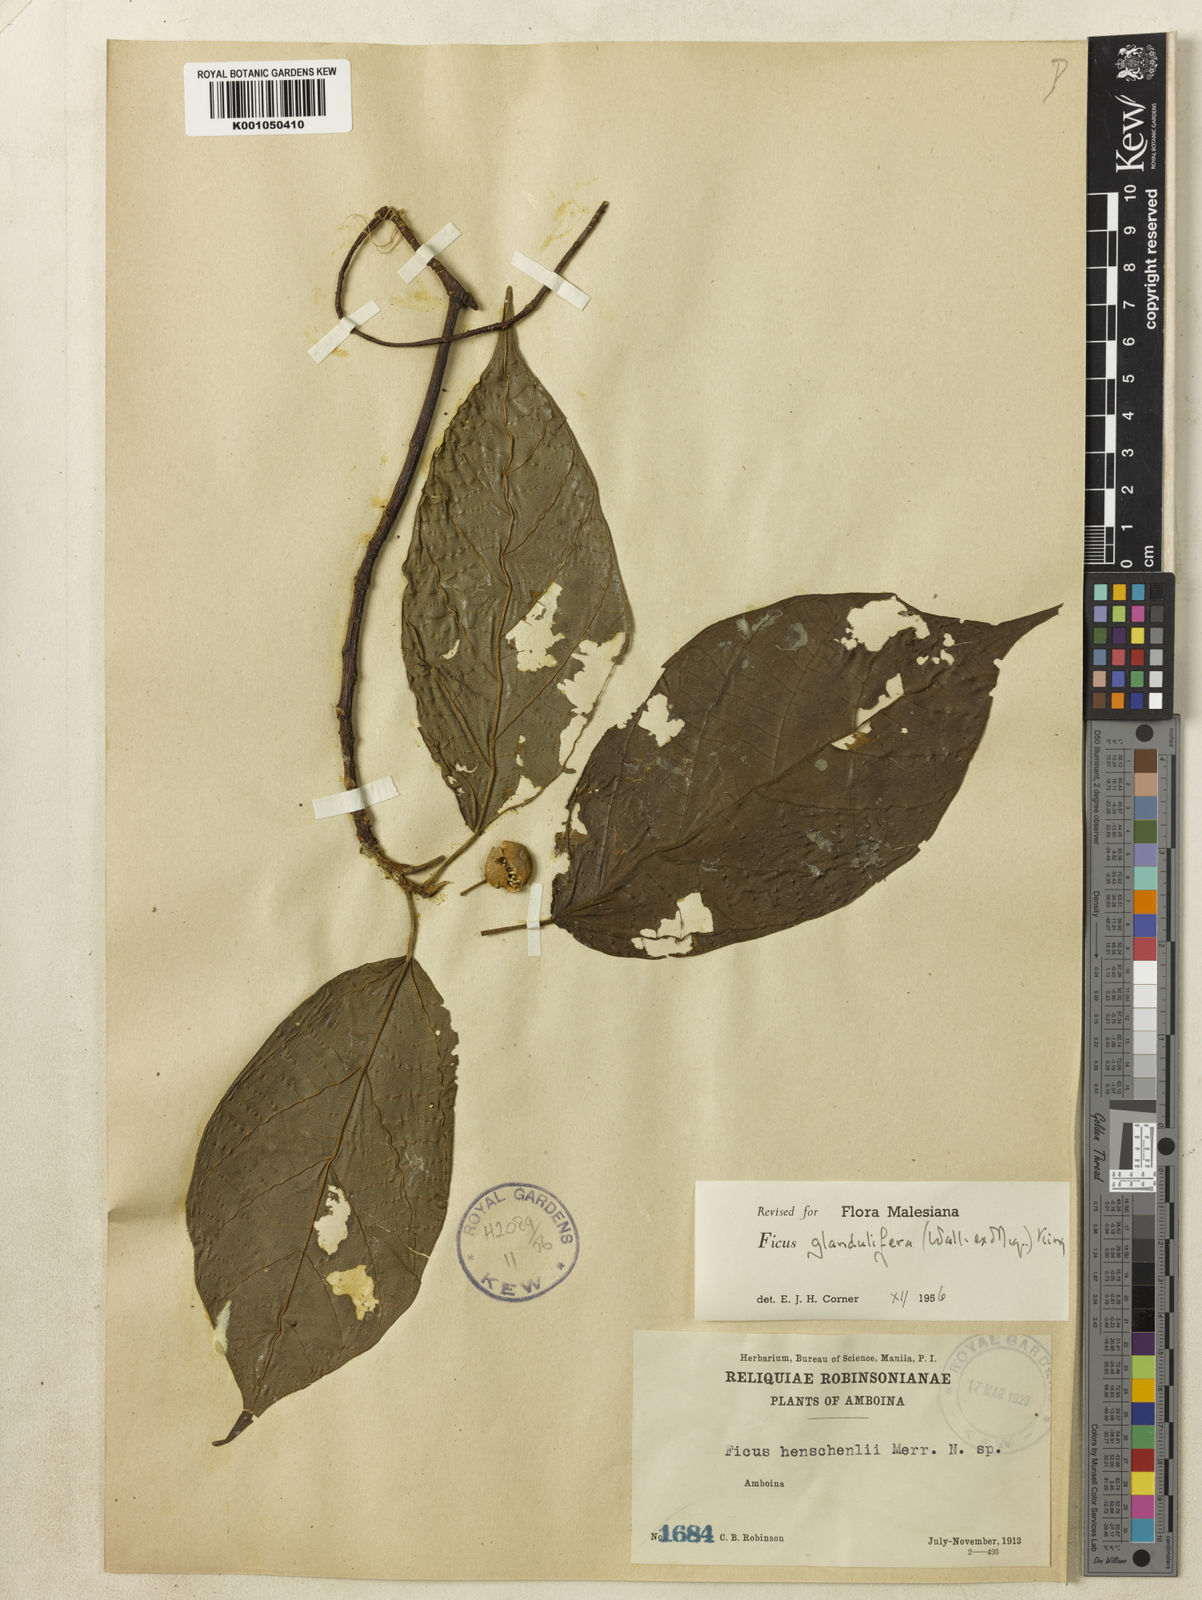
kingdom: Plantae
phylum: Tracheophyta
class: Magnoliopsida
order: Rosales
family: Moraceae
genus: Ficus
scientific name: Ficus
